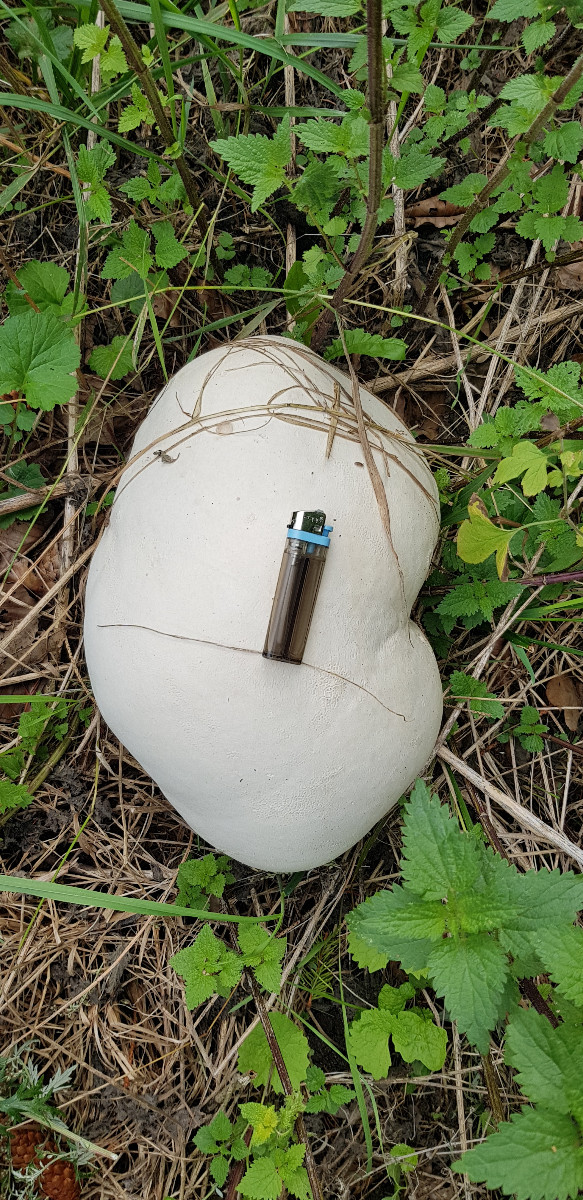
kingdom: Fungi
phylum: Basidiomycota
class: Agaricomycetes
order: Agaricales
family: Lycoperdaceae
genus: Calvatia
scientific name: Calvatia gigantea
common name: kæmpestøvbold
